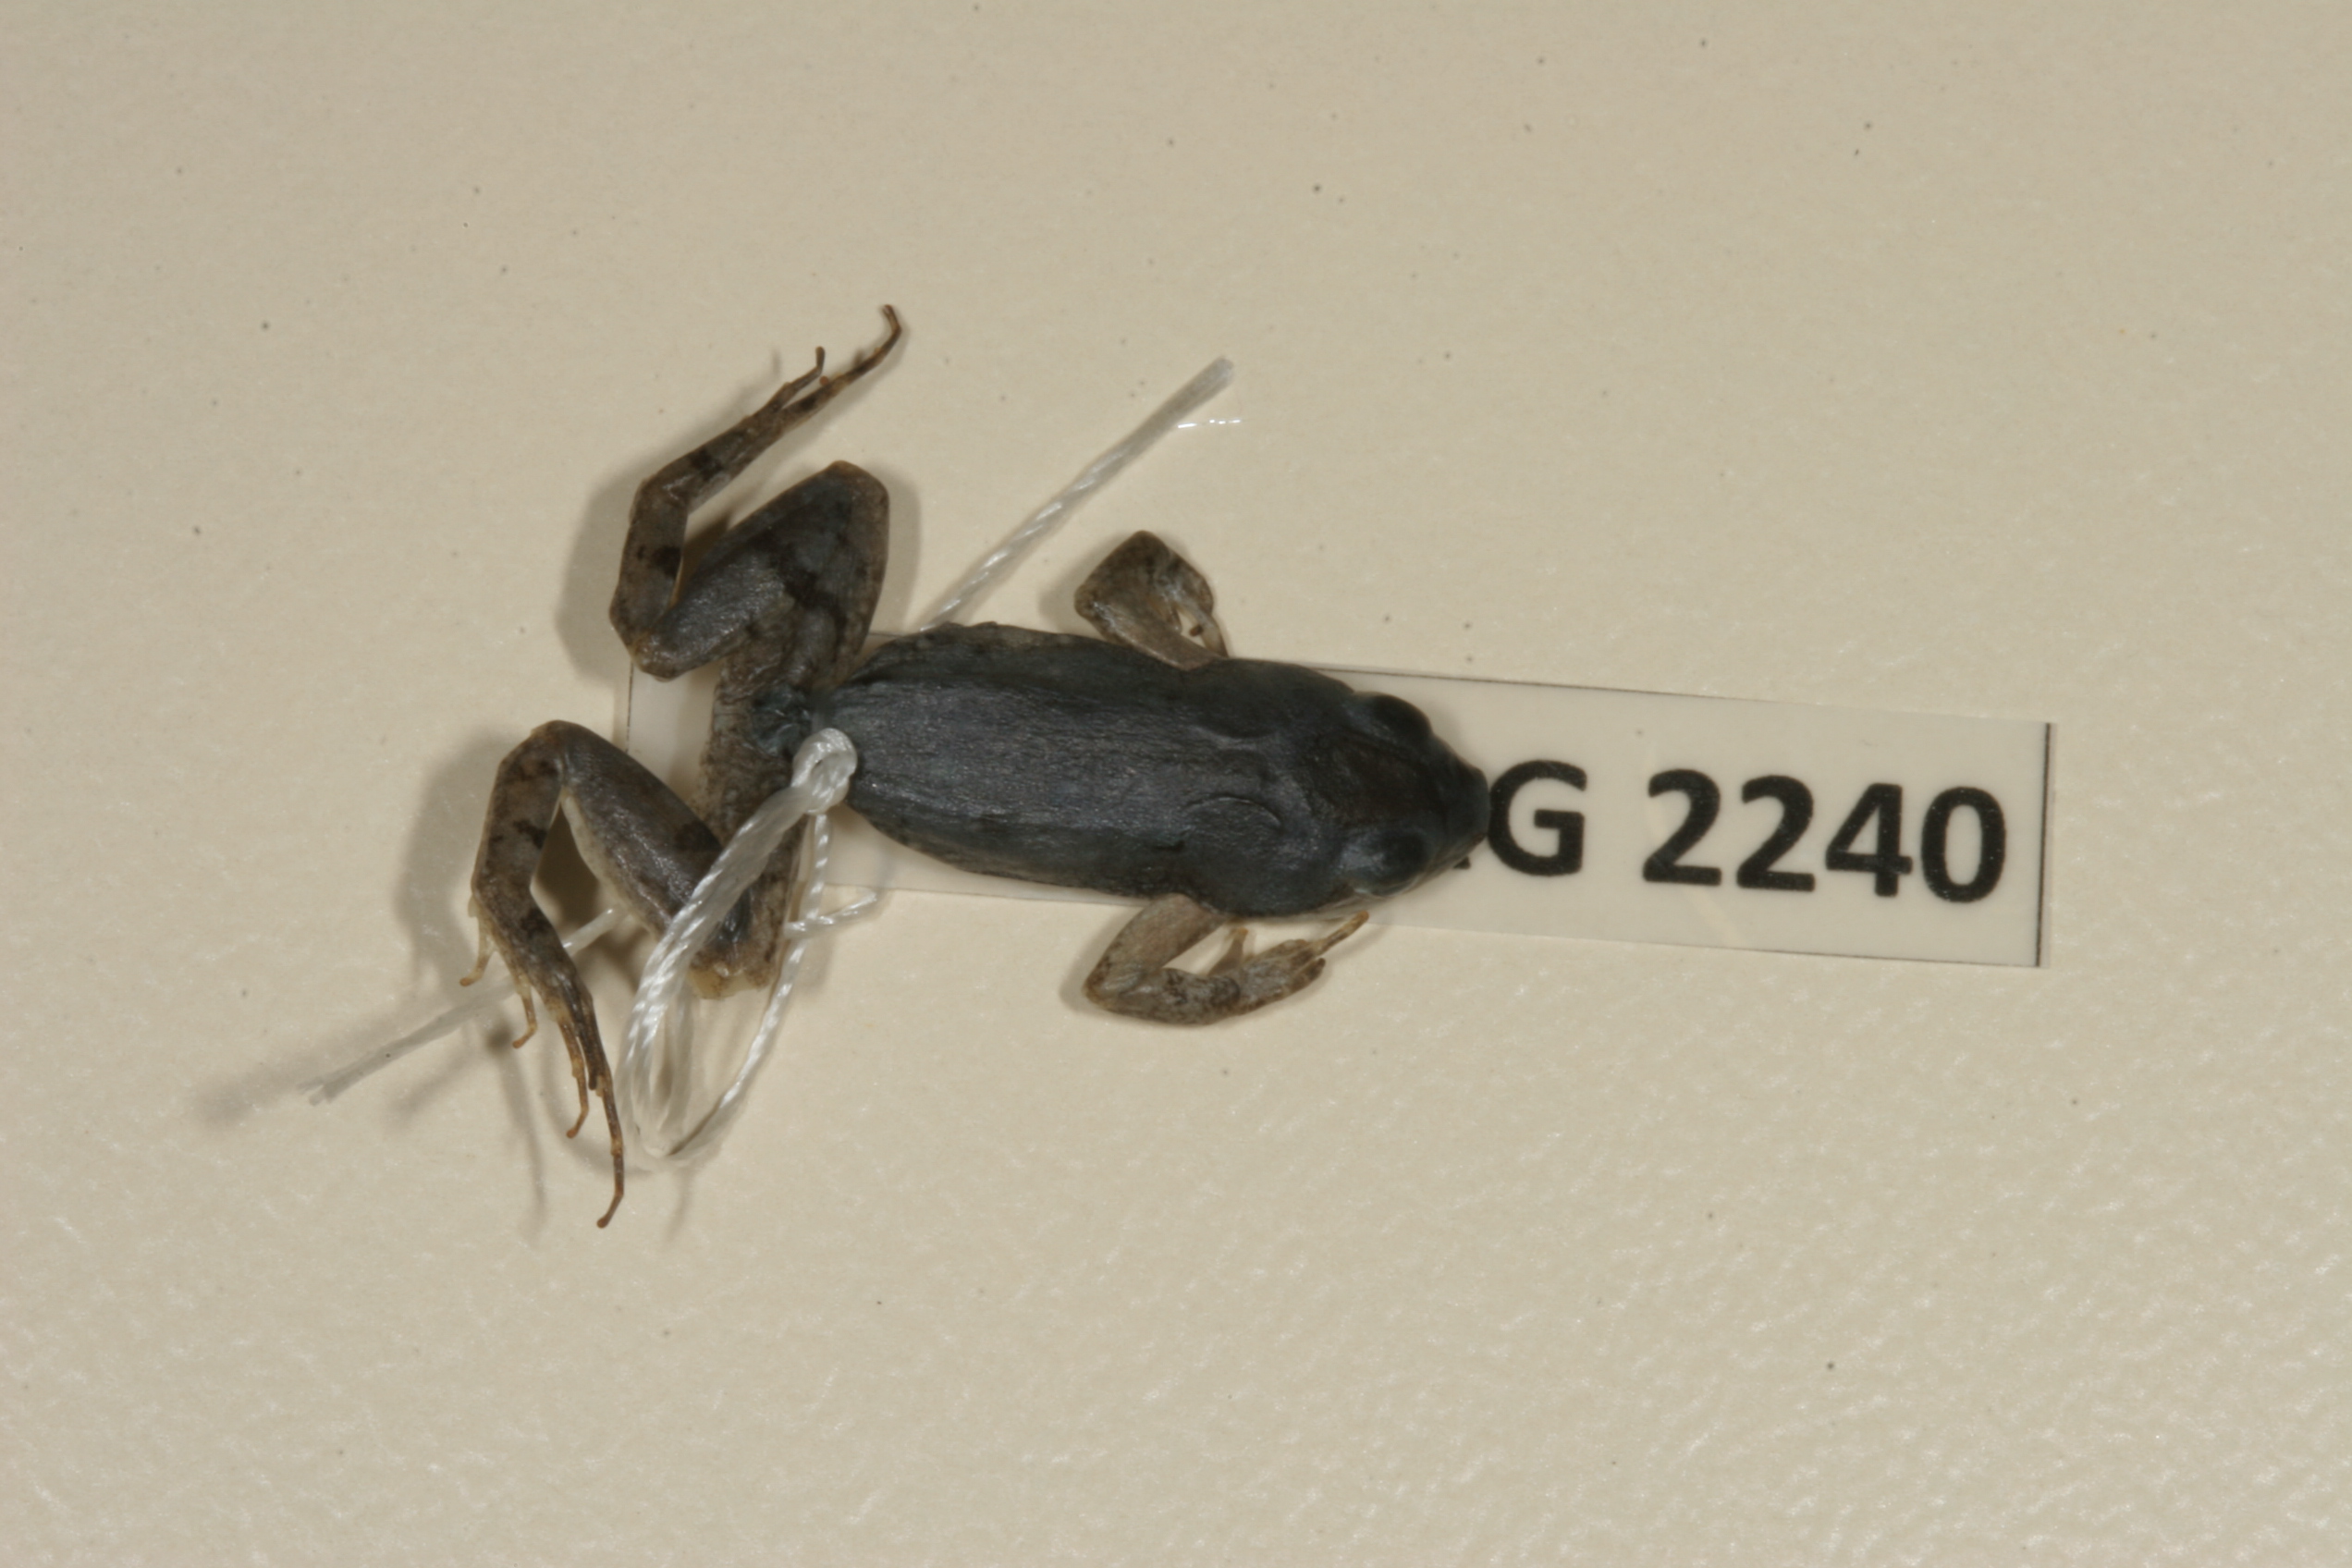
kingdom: Animalia
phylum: Chordata
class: Amphibia
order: Anura
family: Pyxicephalidae
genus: Cacosternum
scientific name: Cacosternum boettgeri
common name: Boettger's frog
